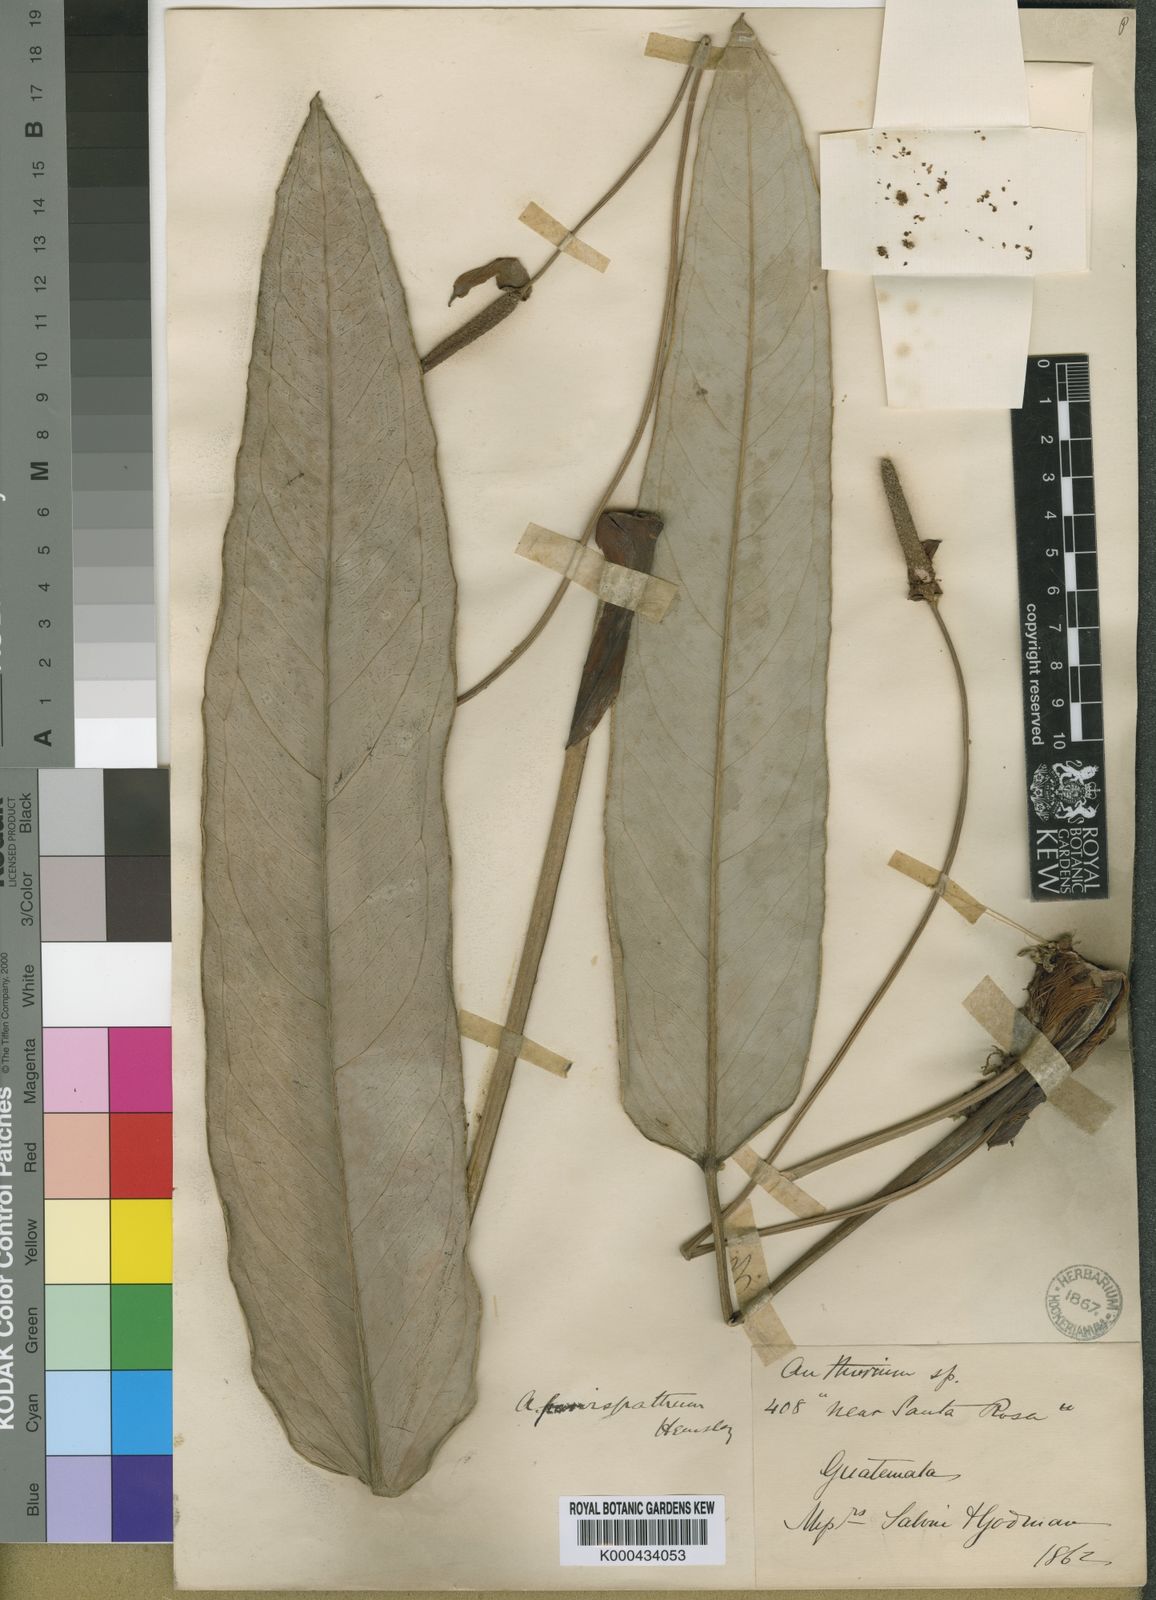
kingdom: Plantae
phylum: Tracheophyta
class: Liliopsida
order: Alismatales
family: Araceae
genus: Anthurium
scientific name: Anthurium parvispathum
